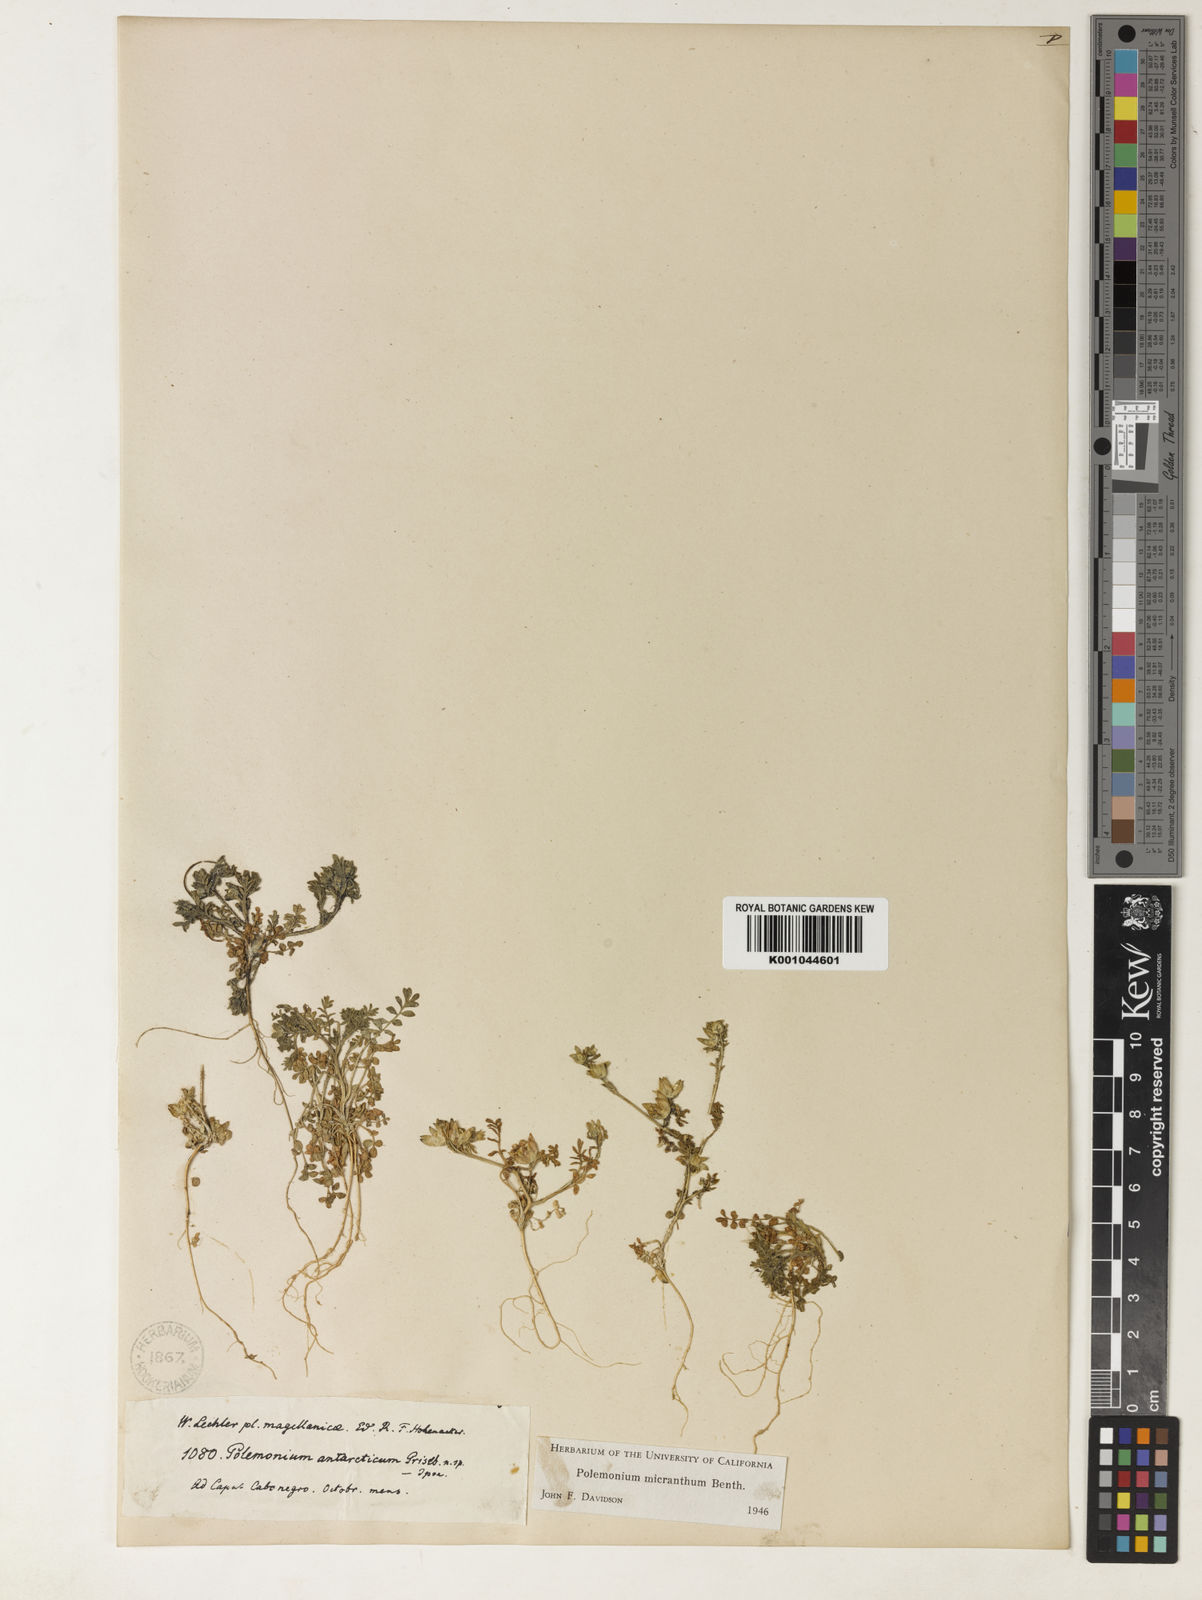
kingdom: Plantae
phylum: Tracheophyta
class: Magnoliopsida
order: Ericales
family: Polemoniaceae
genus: Polemonium
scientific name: Polemonium micranthum
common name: Annual jacob's-ladder
